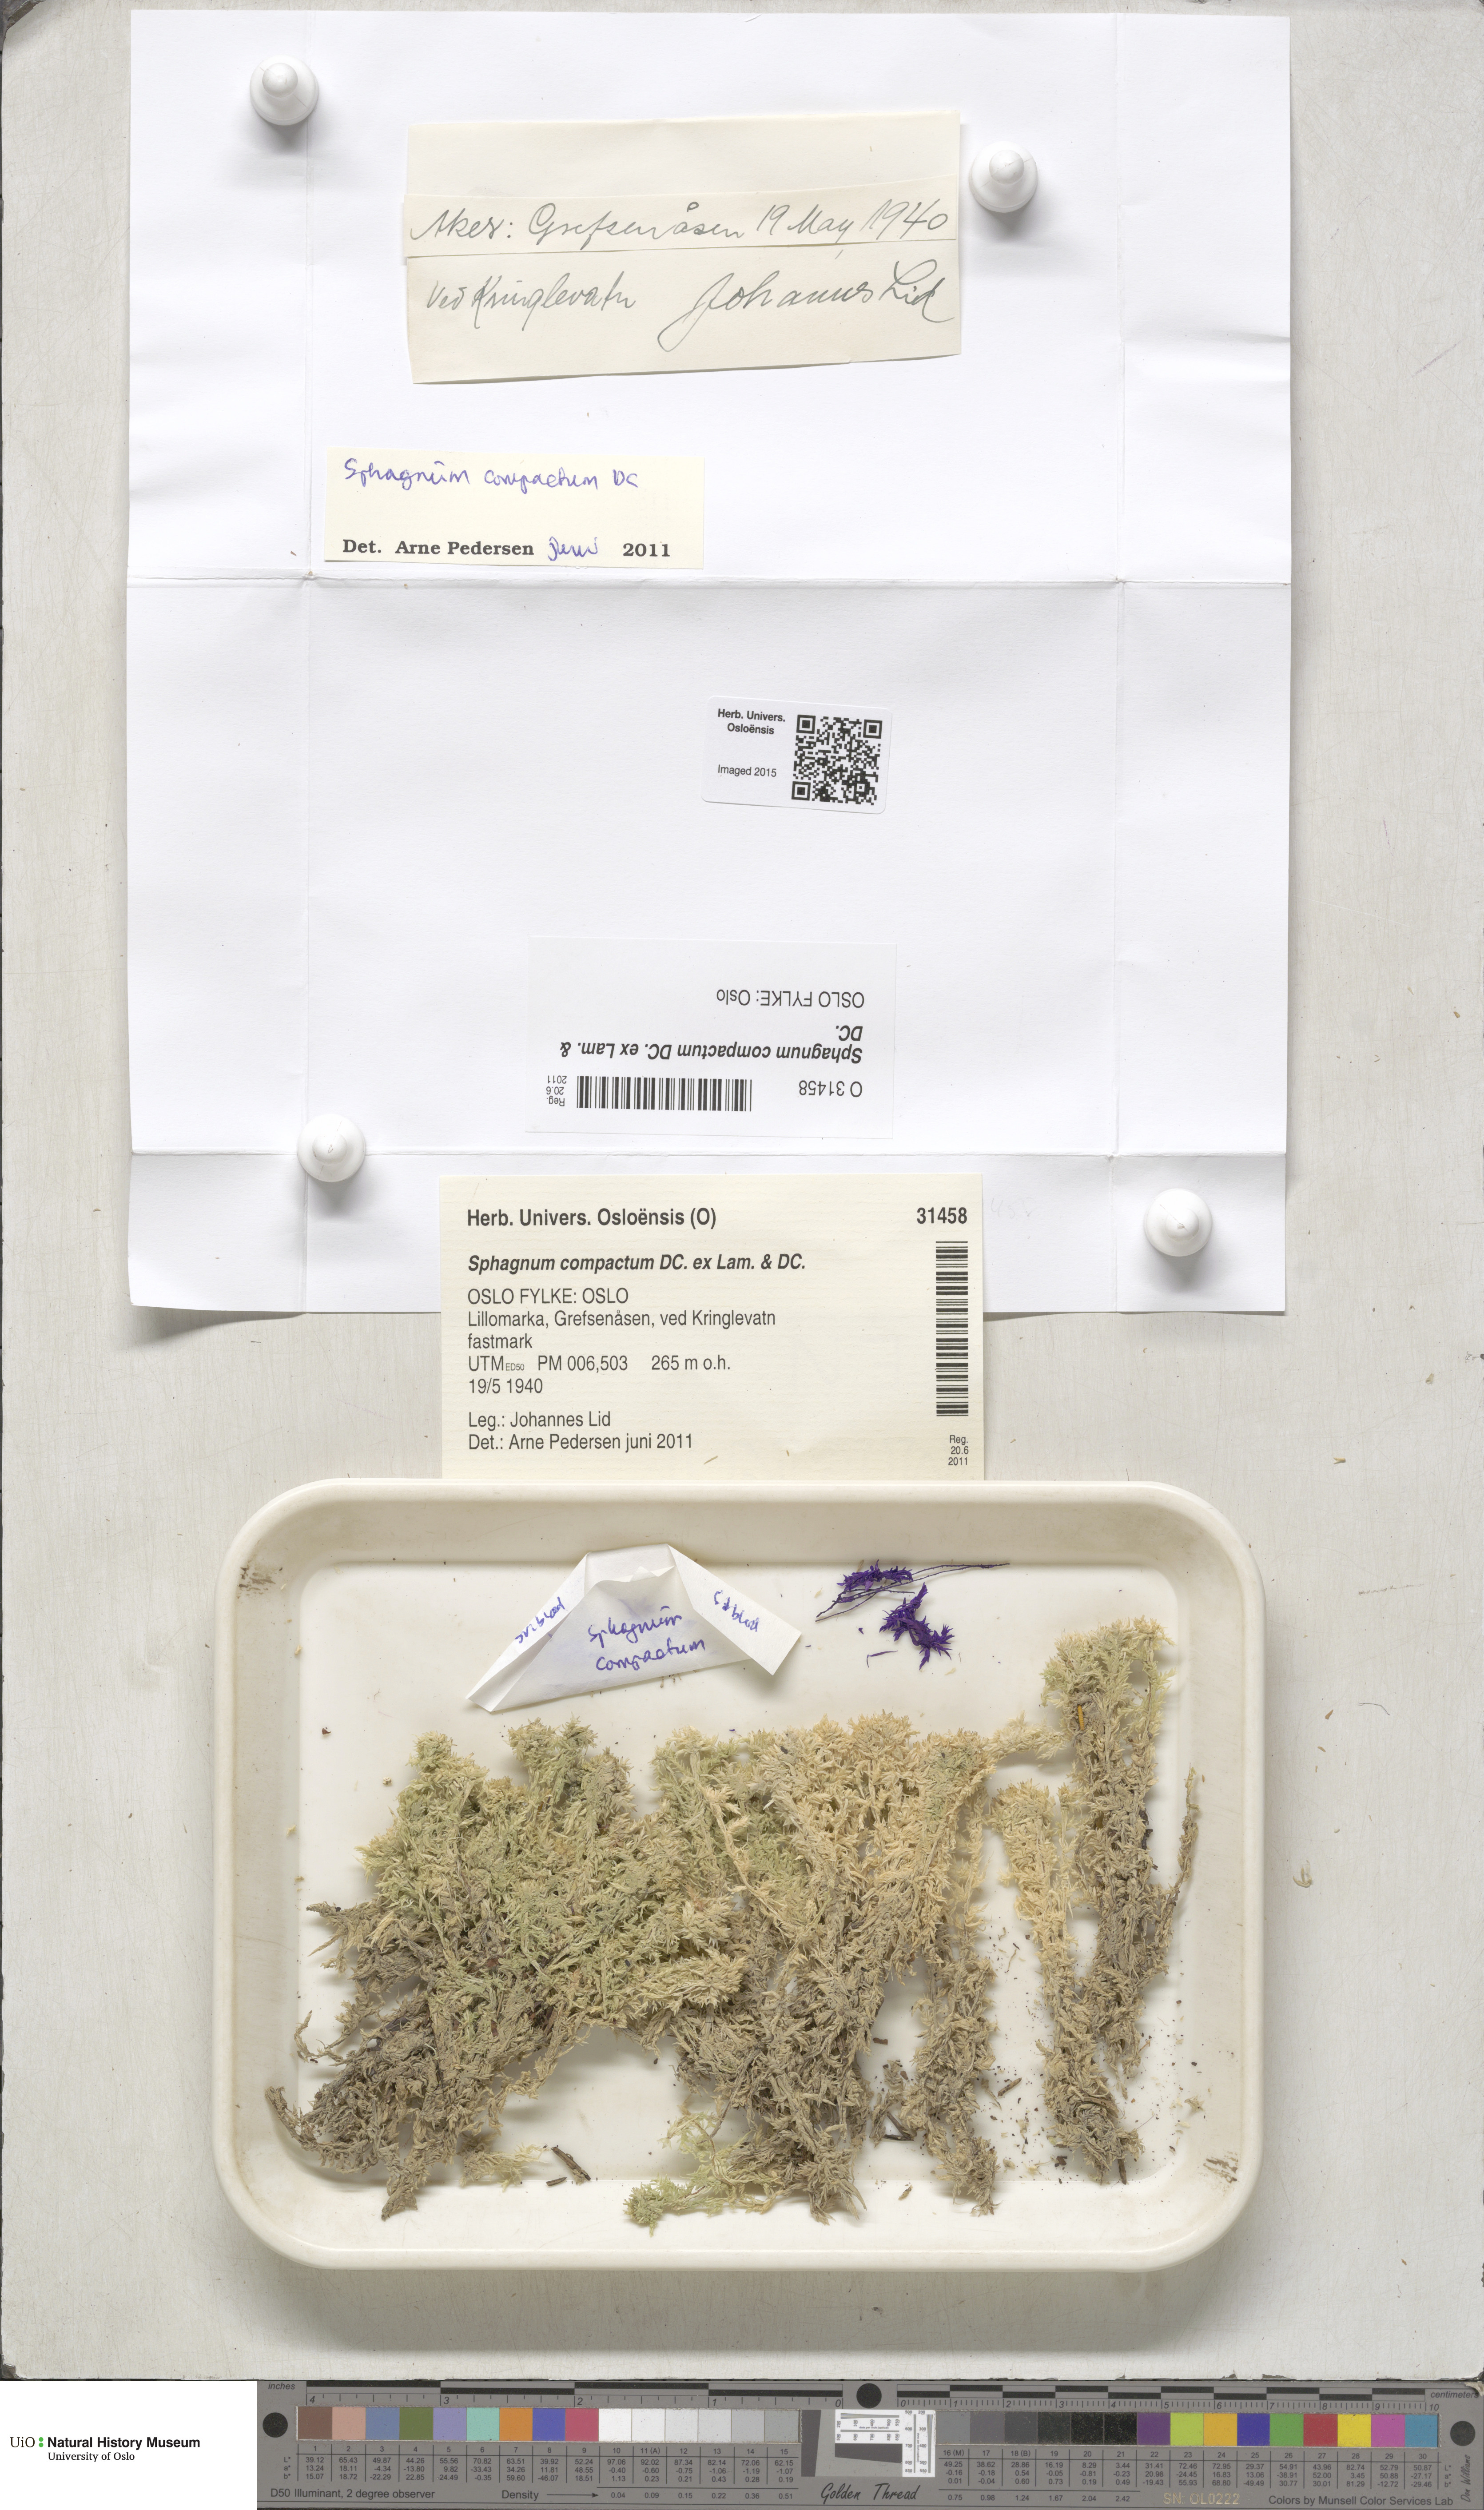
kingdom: Plantae
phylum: Bryophyta
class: Sphagnopsida
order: Sphagnales
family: Sphagnaceae
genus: Sphagnum
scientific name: Sphagnum compactum
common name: Compact peat moss
